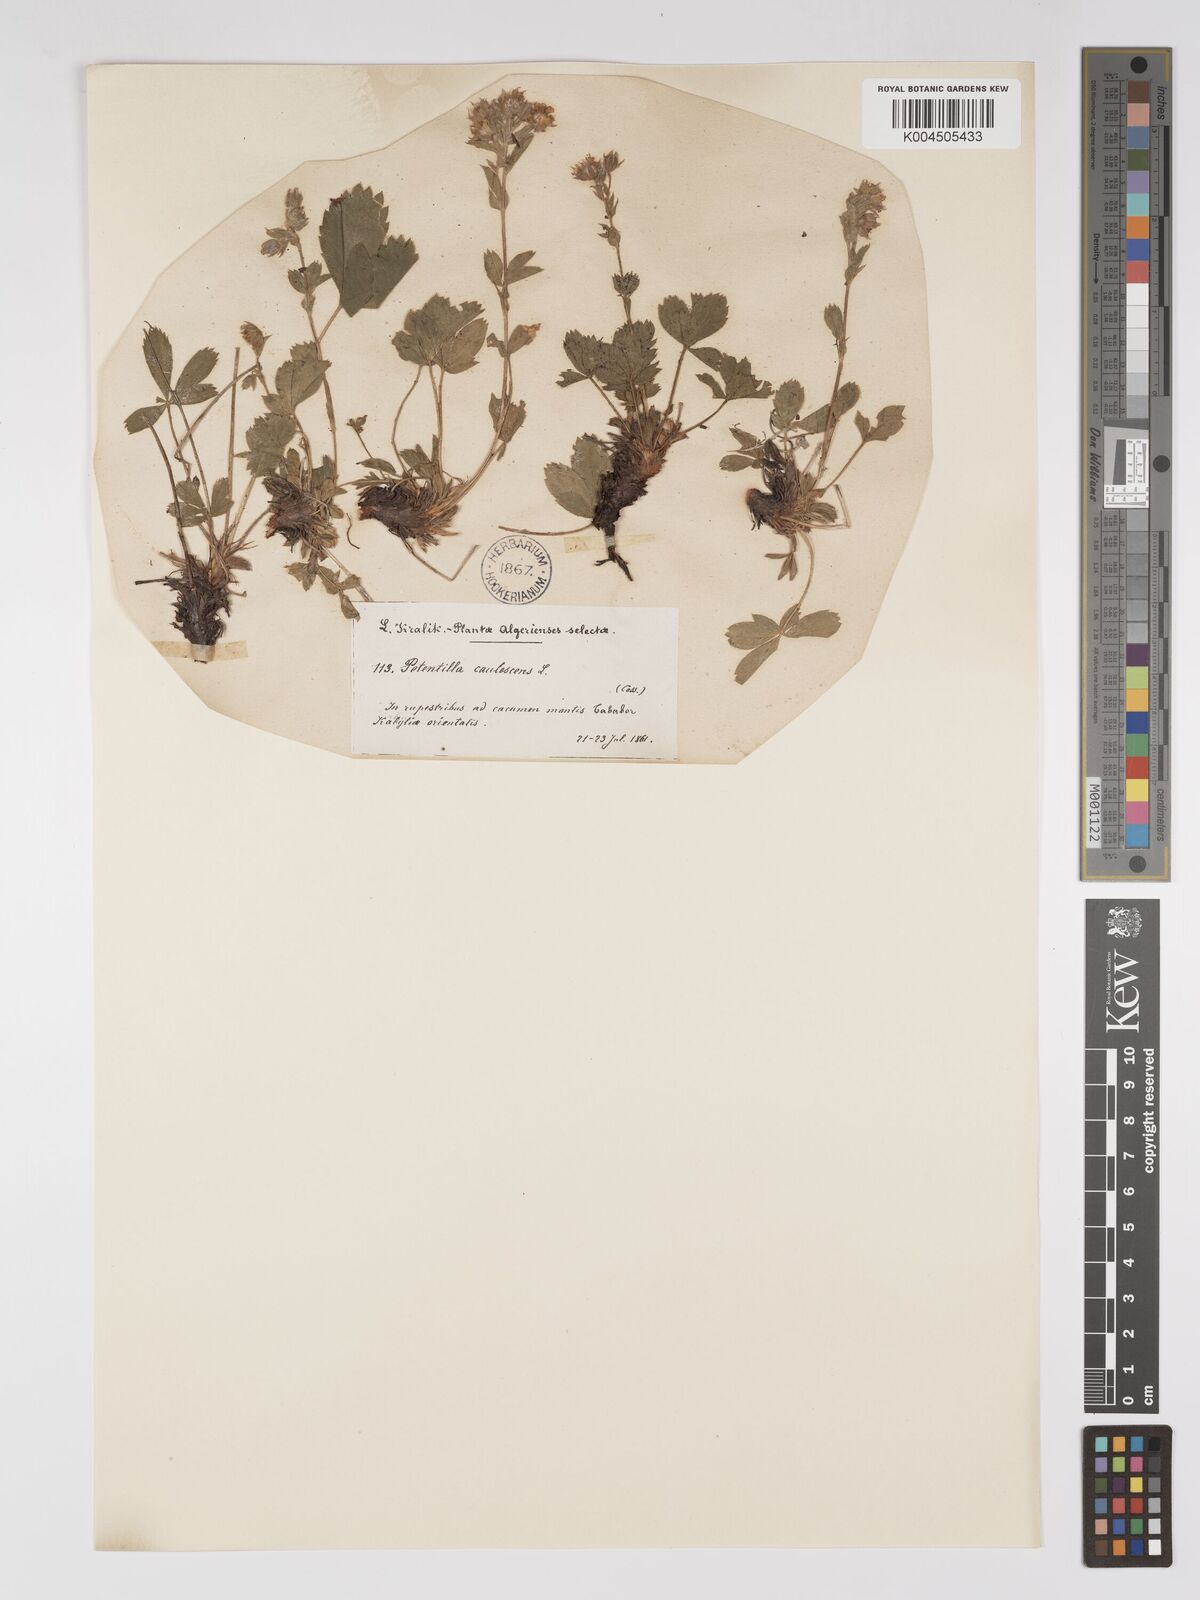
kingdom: Plantae
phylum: Tracheophyta
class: Magnoliopsida
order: Rosales
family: Rosaceae
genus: Potentilla
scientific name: Potentilla caulescens
